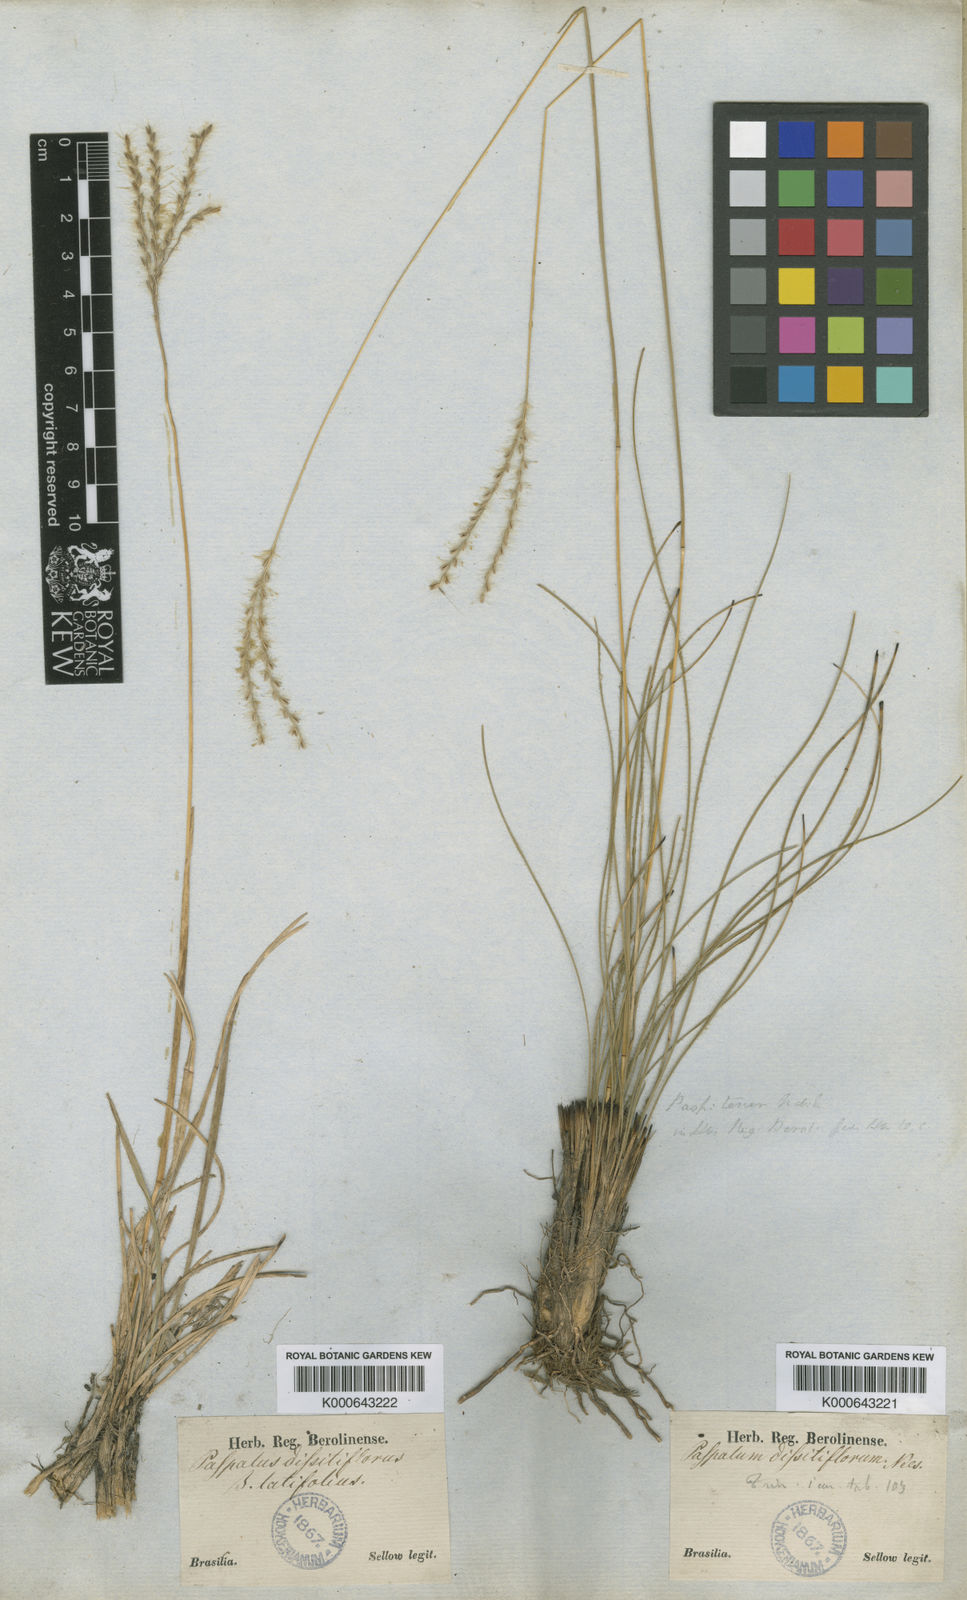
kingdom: Plantae
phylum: Tracheophyta
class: Liliopsida
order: Poales
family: Poaceae
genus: Axonopus
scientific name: Axonopus brasiliensis
